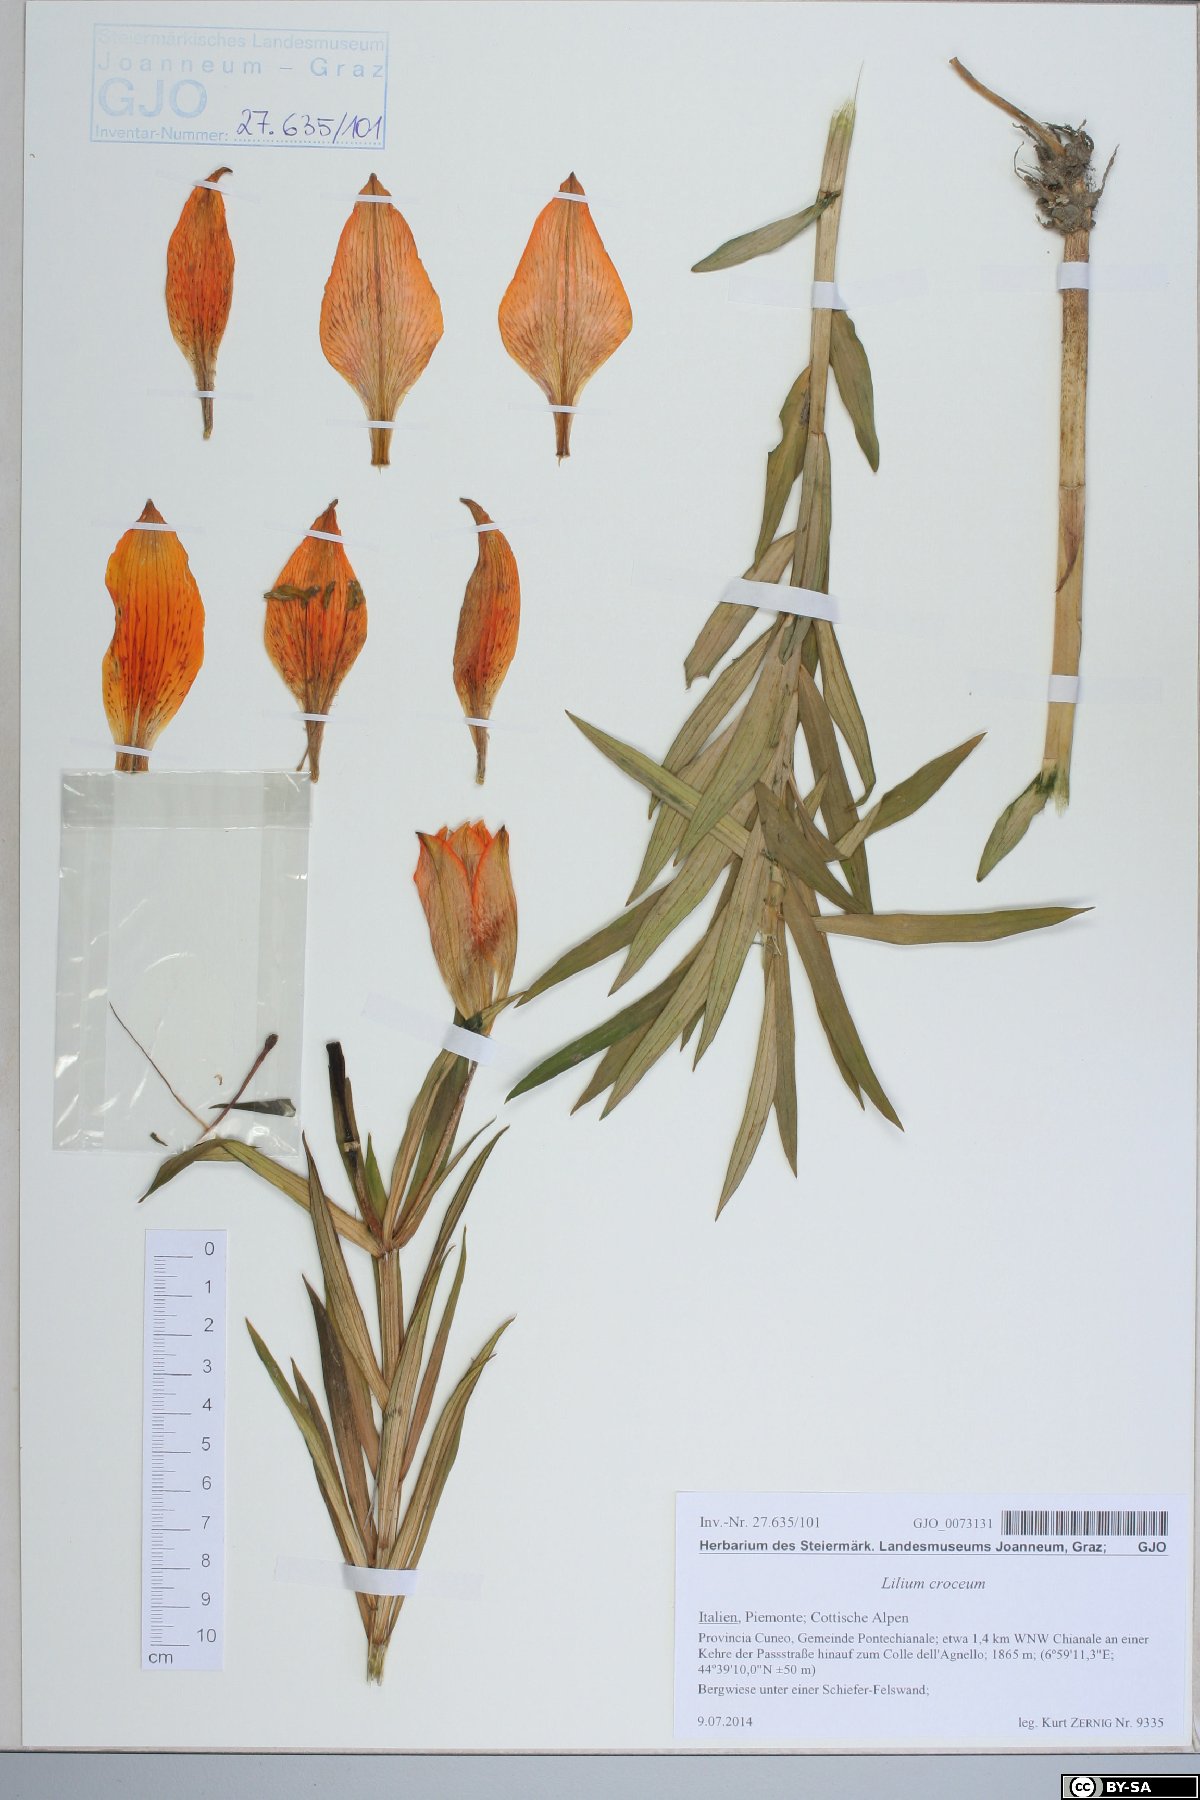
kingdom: Plantae
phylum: Tracheophyta
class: Liliopsida
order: Liliales
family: Liliaceae
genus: Lilium
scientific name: Lilium bulbiferum
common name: Orange lily
